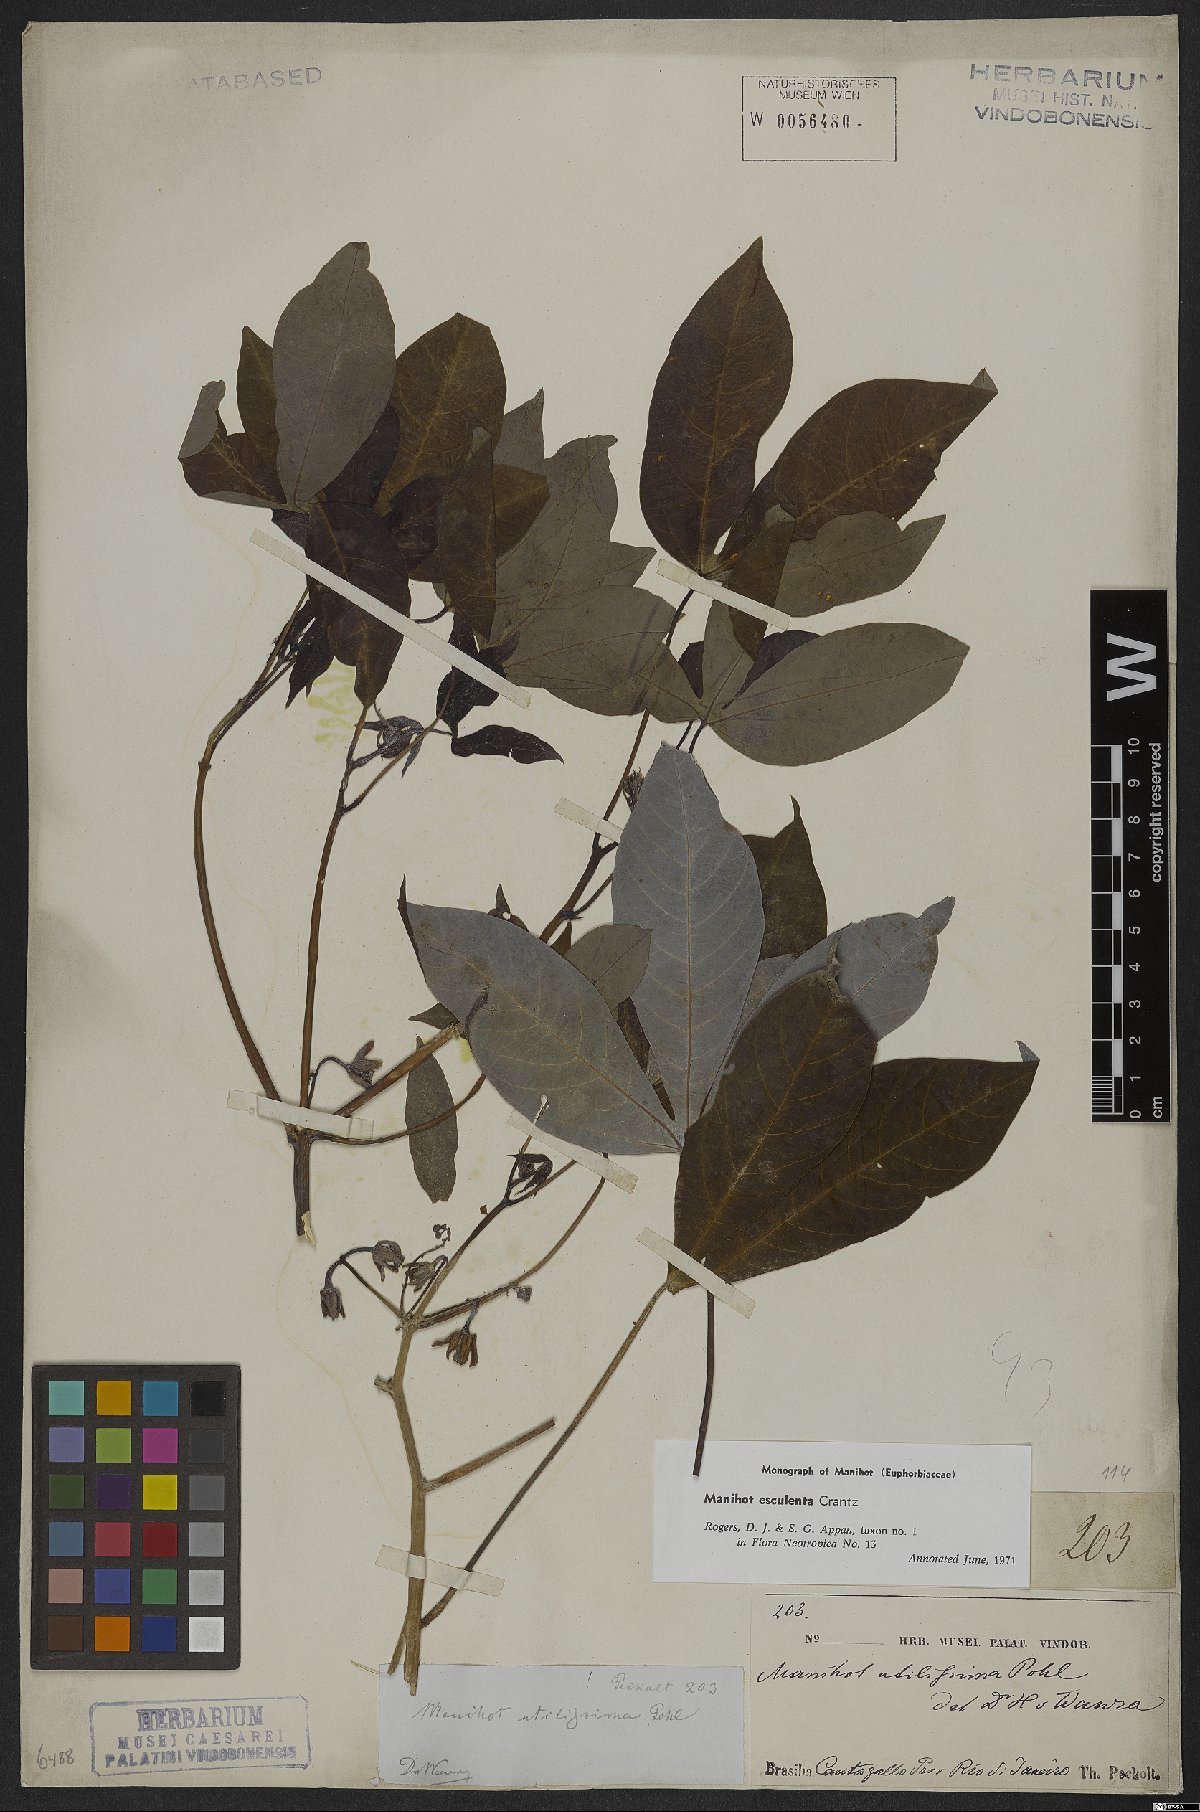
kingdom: Plantae
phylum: Tracheophyta
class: Magnoliopsida
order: Malpighiales
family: Euphorbiaceae
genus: Manihot
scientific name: Manihot esculenta
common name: Cassava
